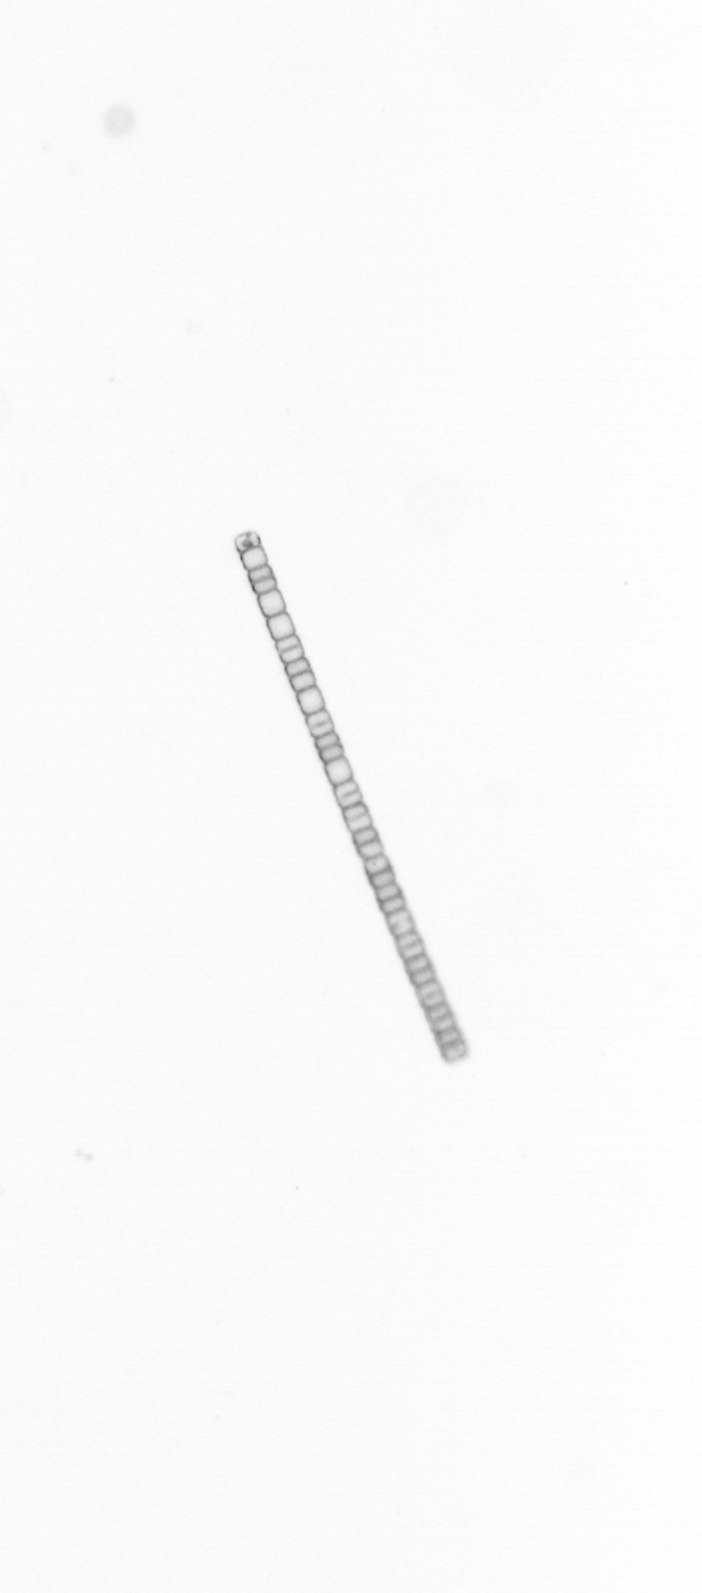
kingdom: Chromista
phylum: Ochrophyta
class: Bacillariophyceae
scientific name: Bacillariophyceae
